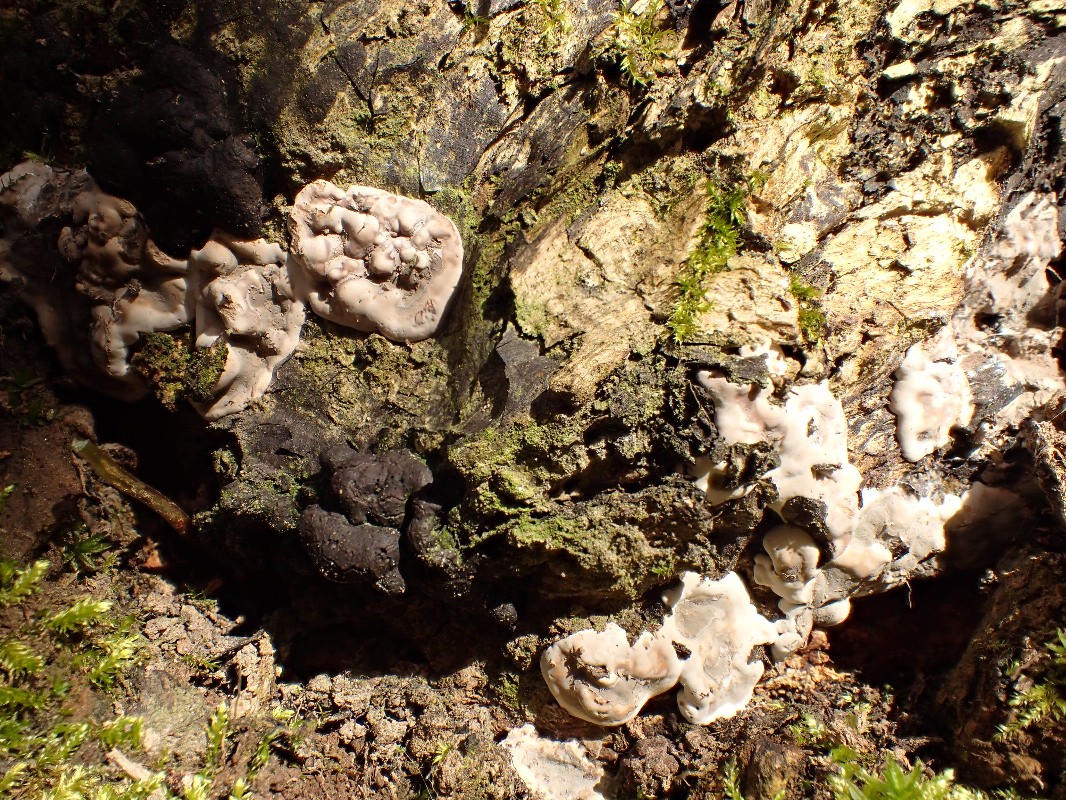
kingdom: Fungi
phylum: Ascomycota
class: Sordariomycetes
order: Xylariales
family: Xylariaceae
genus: Kretzschmaria
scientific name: Kretzschmaria deusta
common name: stor kulsvamp
